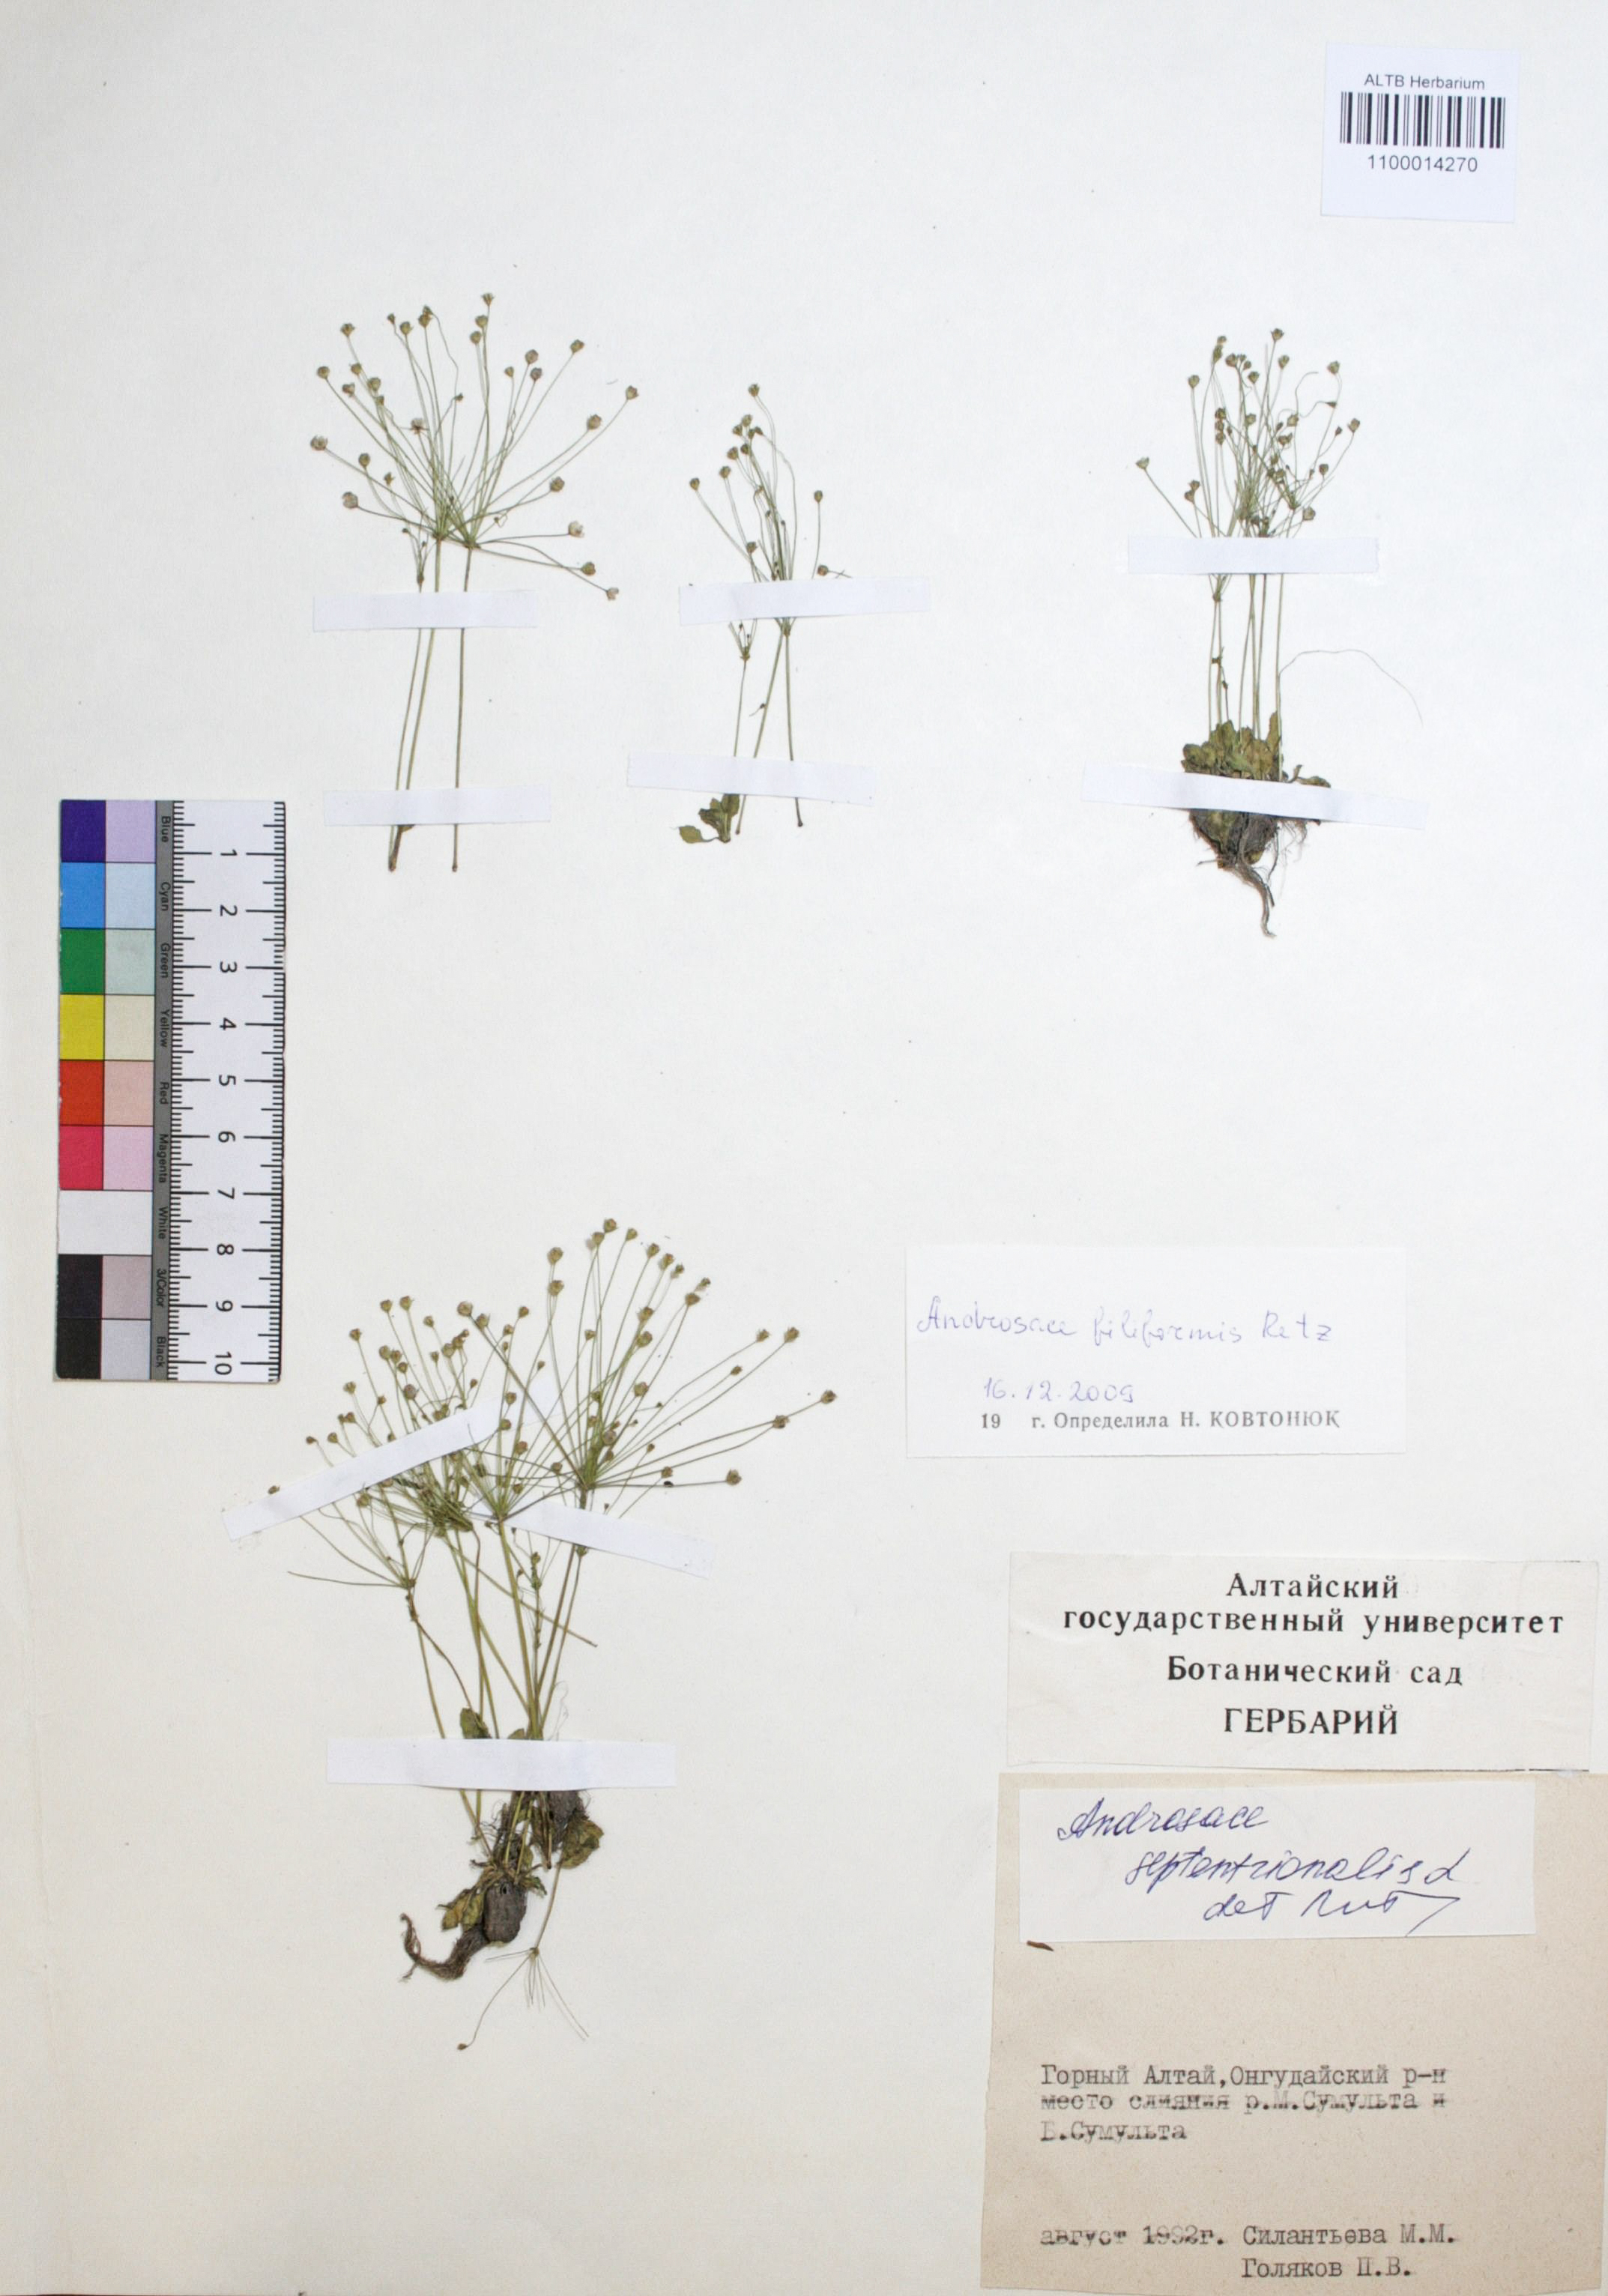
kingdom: Plantae
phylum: Tracheophyta
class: Magnoliopsida
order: Ericales
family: Primulaceae
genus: Androsace
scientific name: Androsace filiformis
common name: Filiform rock jasmine
